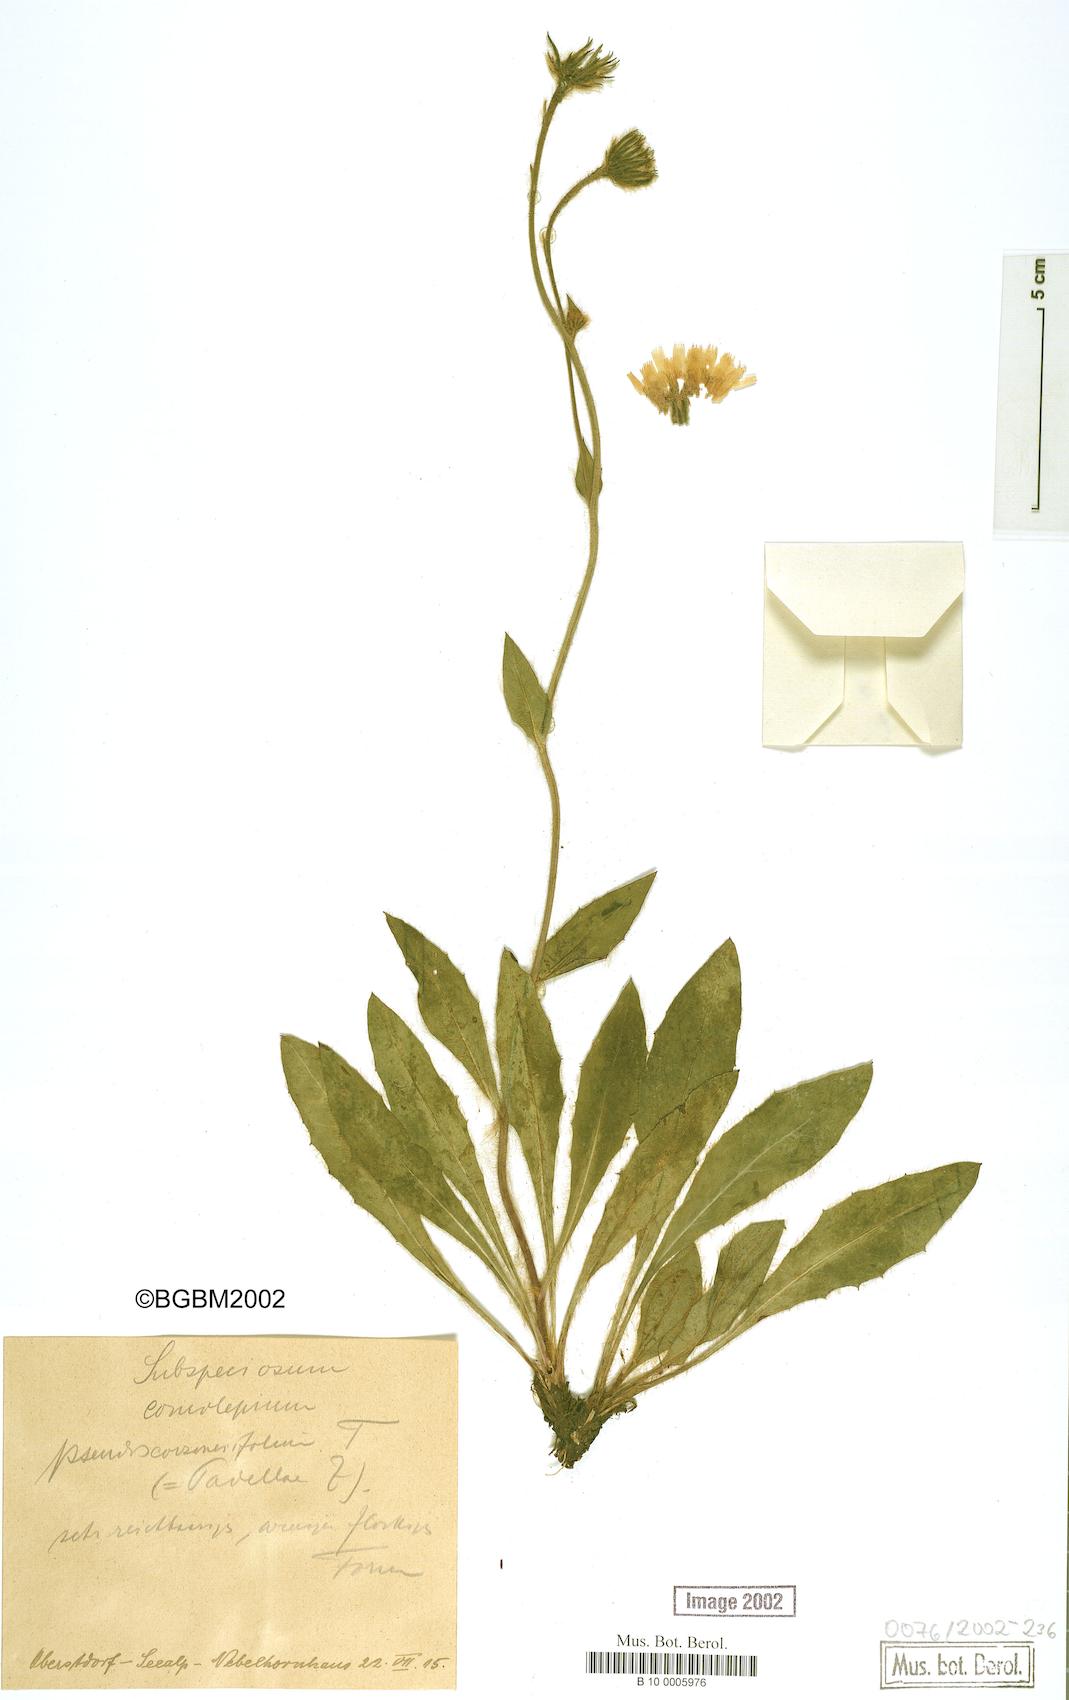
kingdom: Plantae
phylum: Tracheophyta
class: Magnoliopsida
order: Asterales
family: Asteraceae
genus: Hieracium
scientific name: Hieracium subspeciosum
